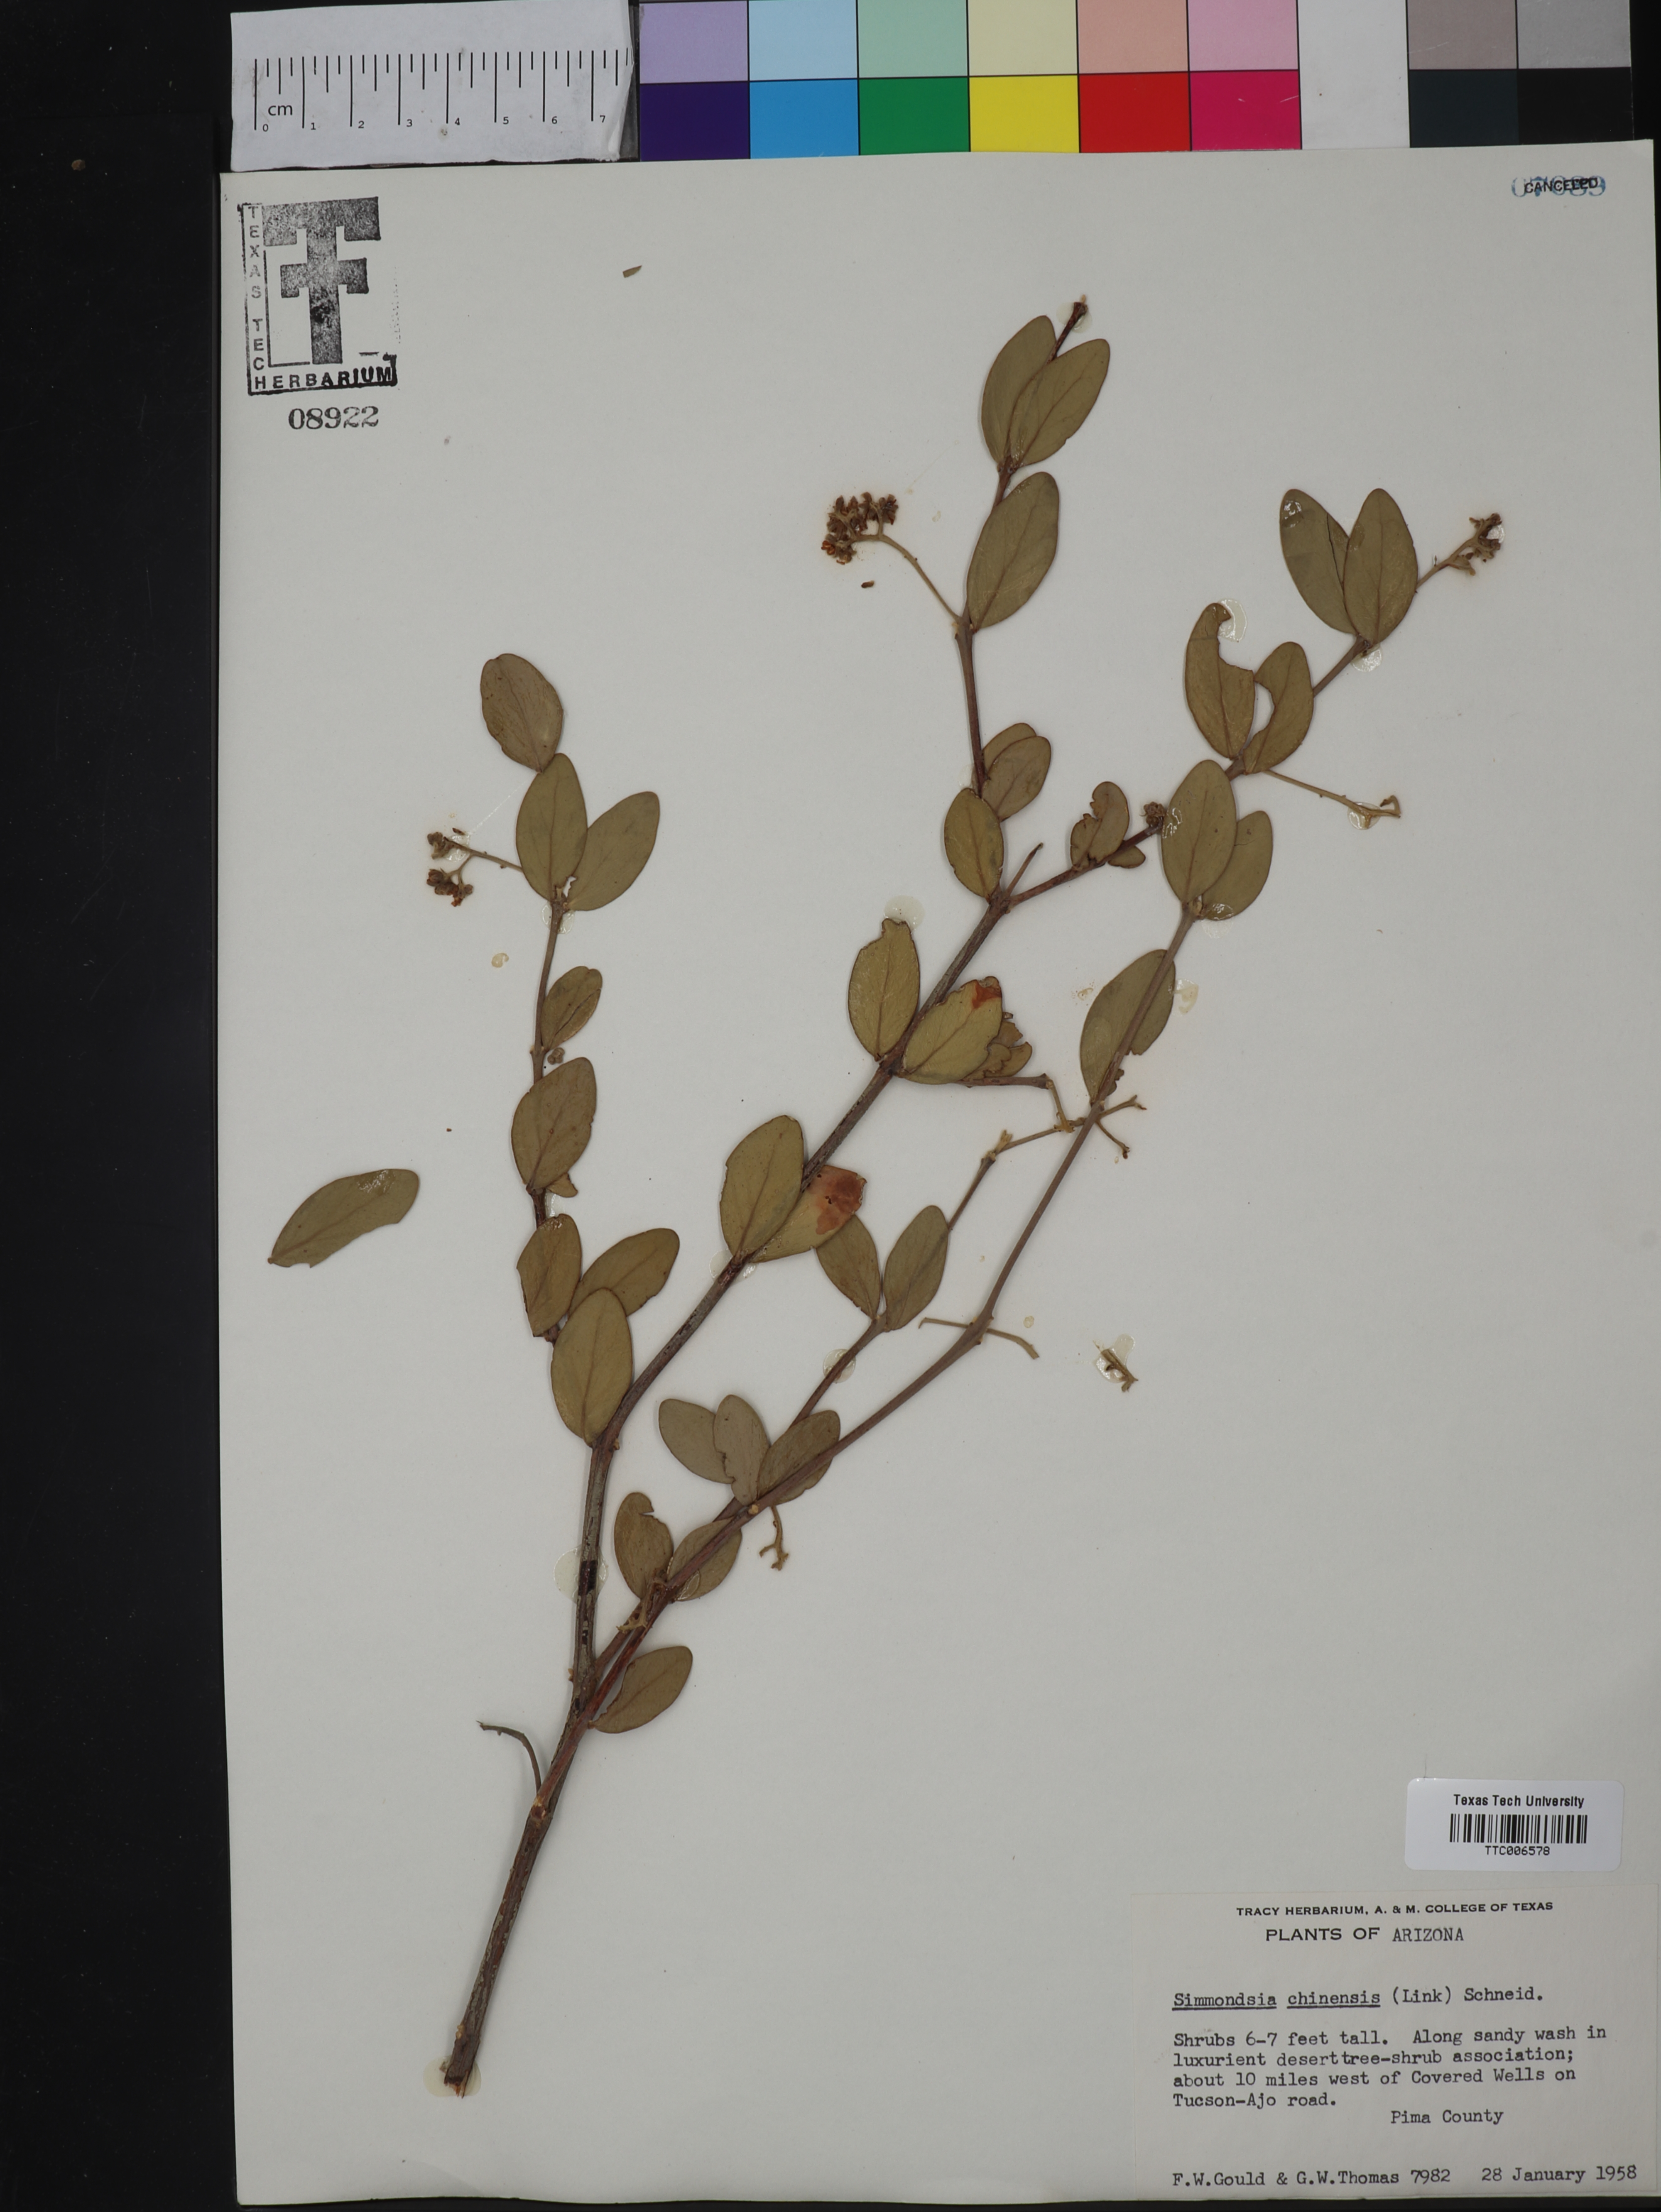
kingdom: Plantae
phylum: Tracheophyta
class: Magnoliopsida
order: Caryophyllales
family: Simmondsiaceae
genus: Simmondsia
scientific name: Simmondsia chinensis
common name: Jojoba
